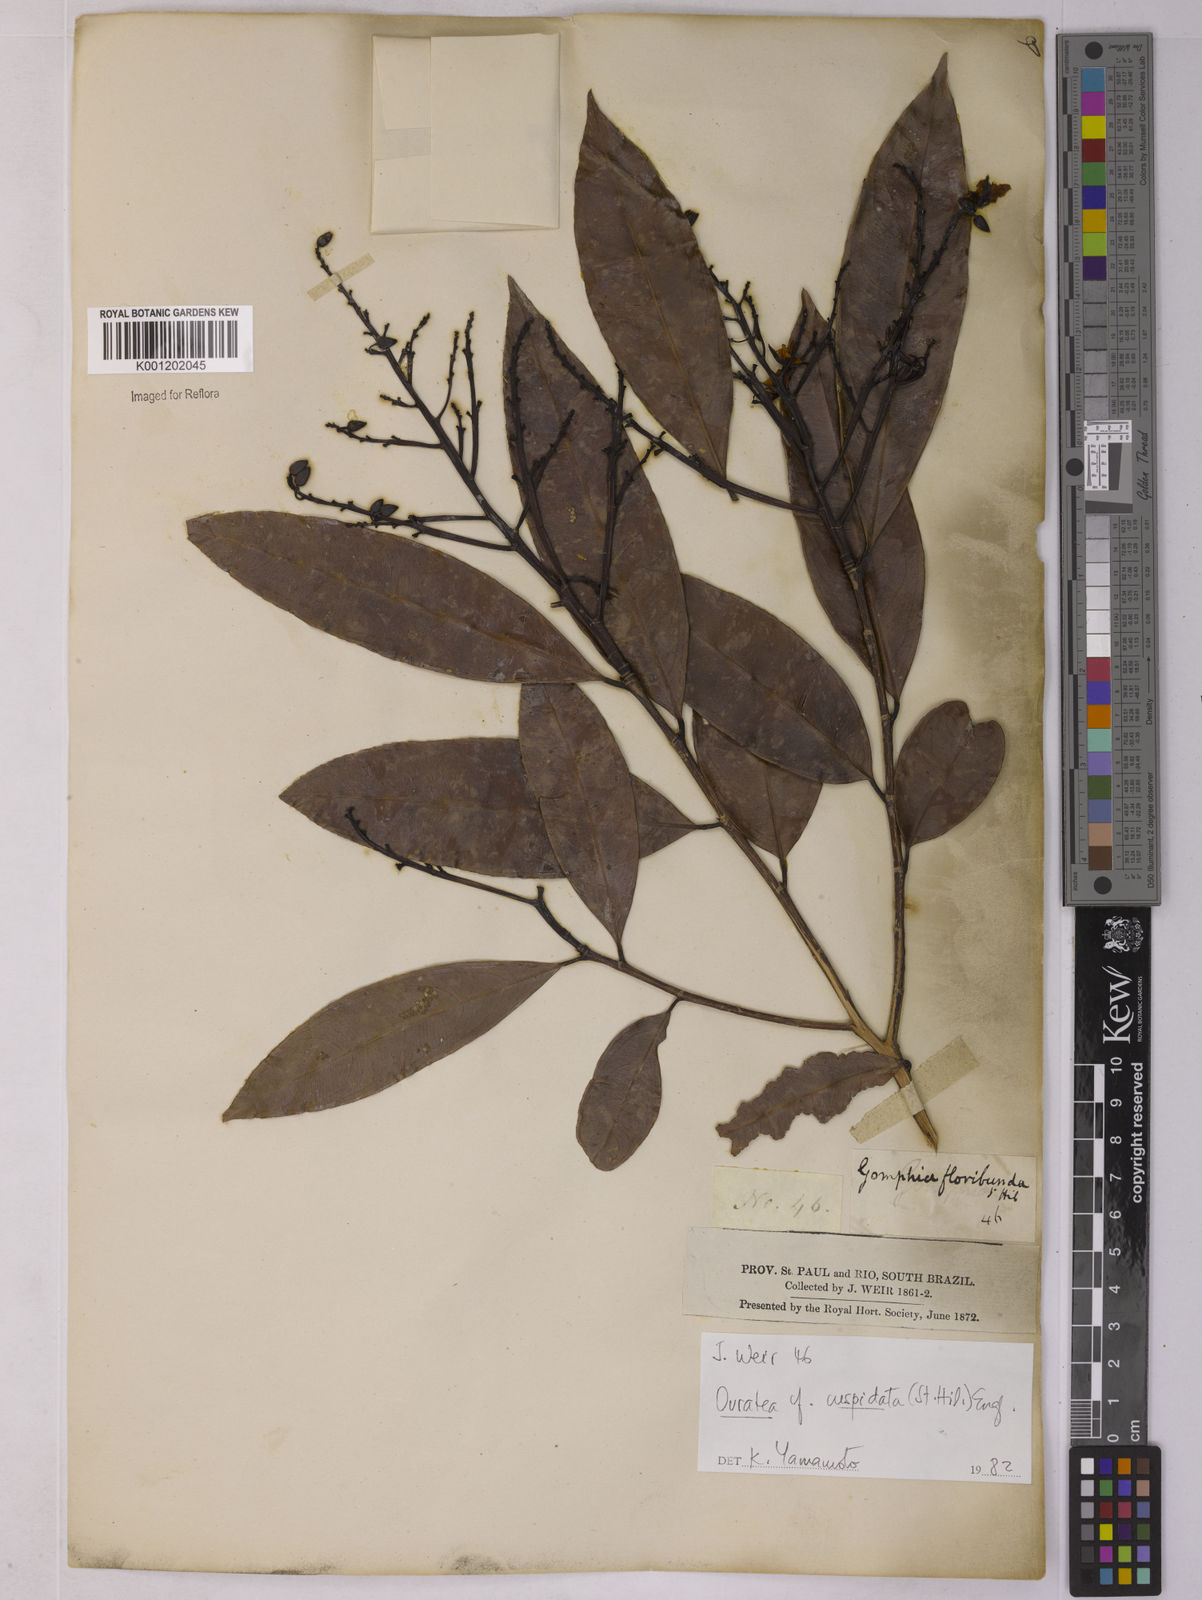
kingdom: Plantae
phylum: Tracheophyta
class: Magnoliopsida
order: Malpighiales
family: Ochnaceae
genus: Ouratea
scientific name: Ouratea cuspidata
